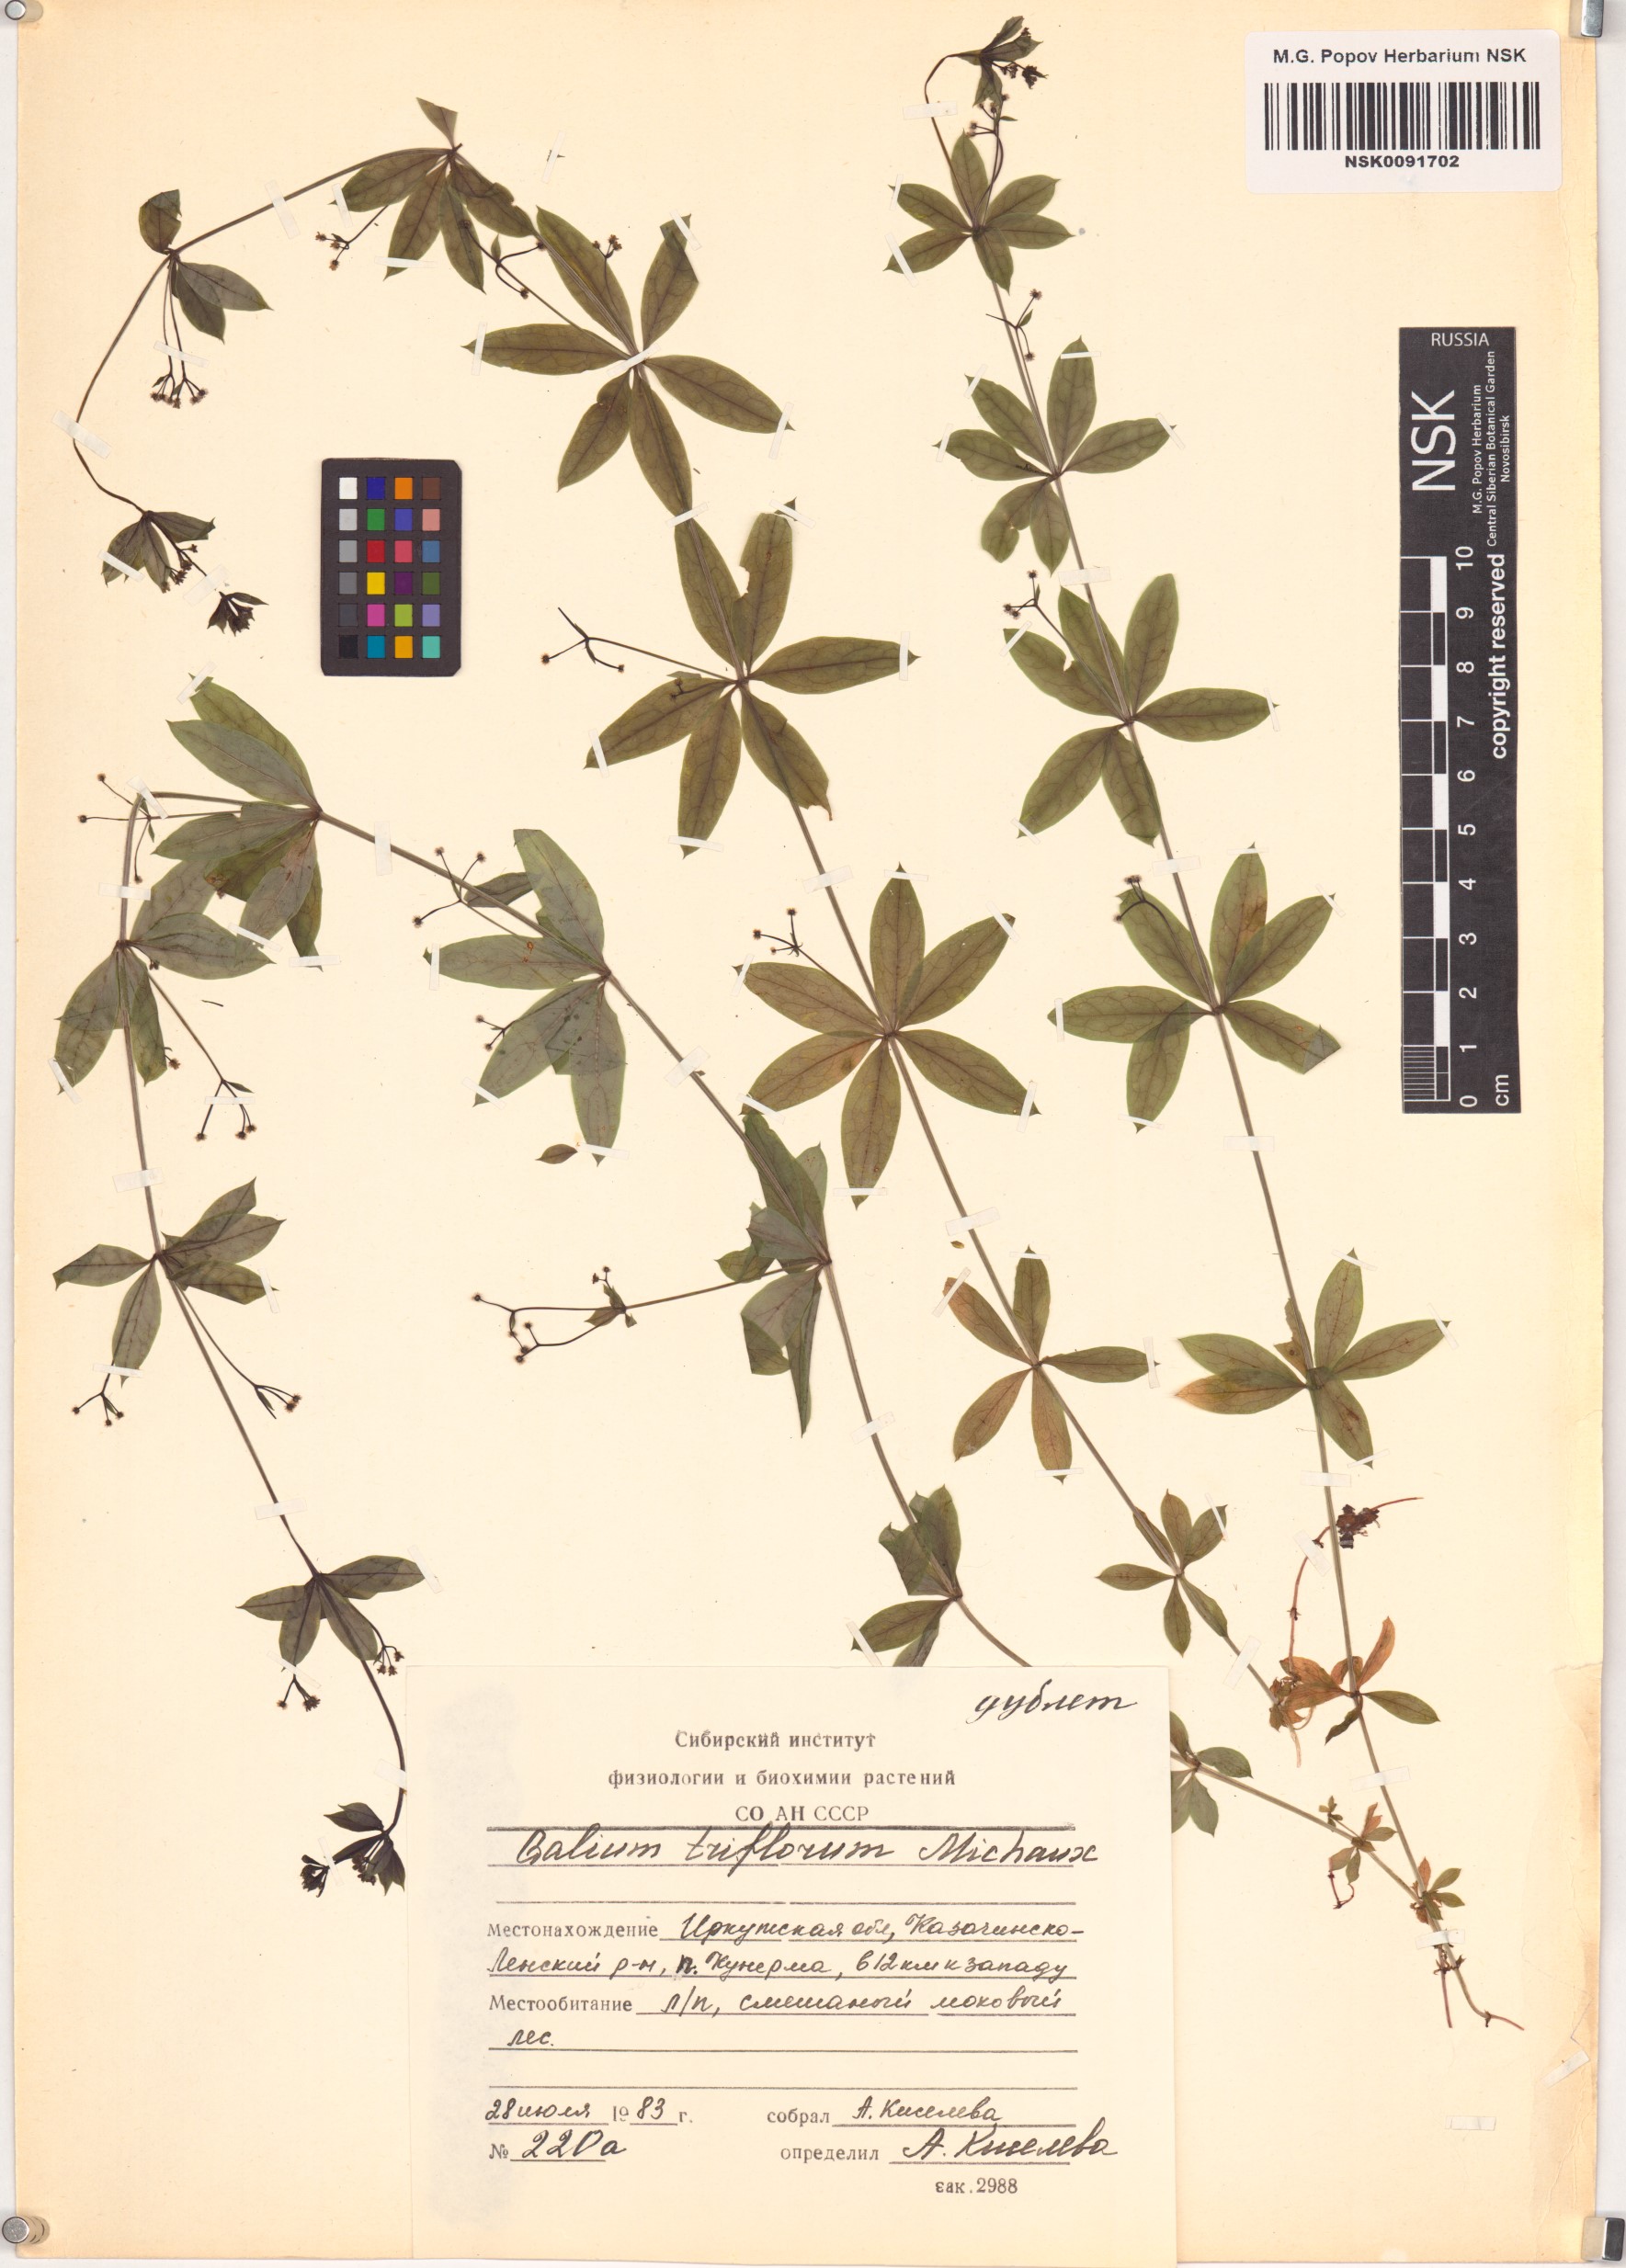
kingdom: Plantae
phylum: Tracheophyta
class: Magnoliopsida
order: Gentianales
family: Rubiaceae
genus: Galium
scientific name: Galium triflorum
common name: Fragrant bedstraw
